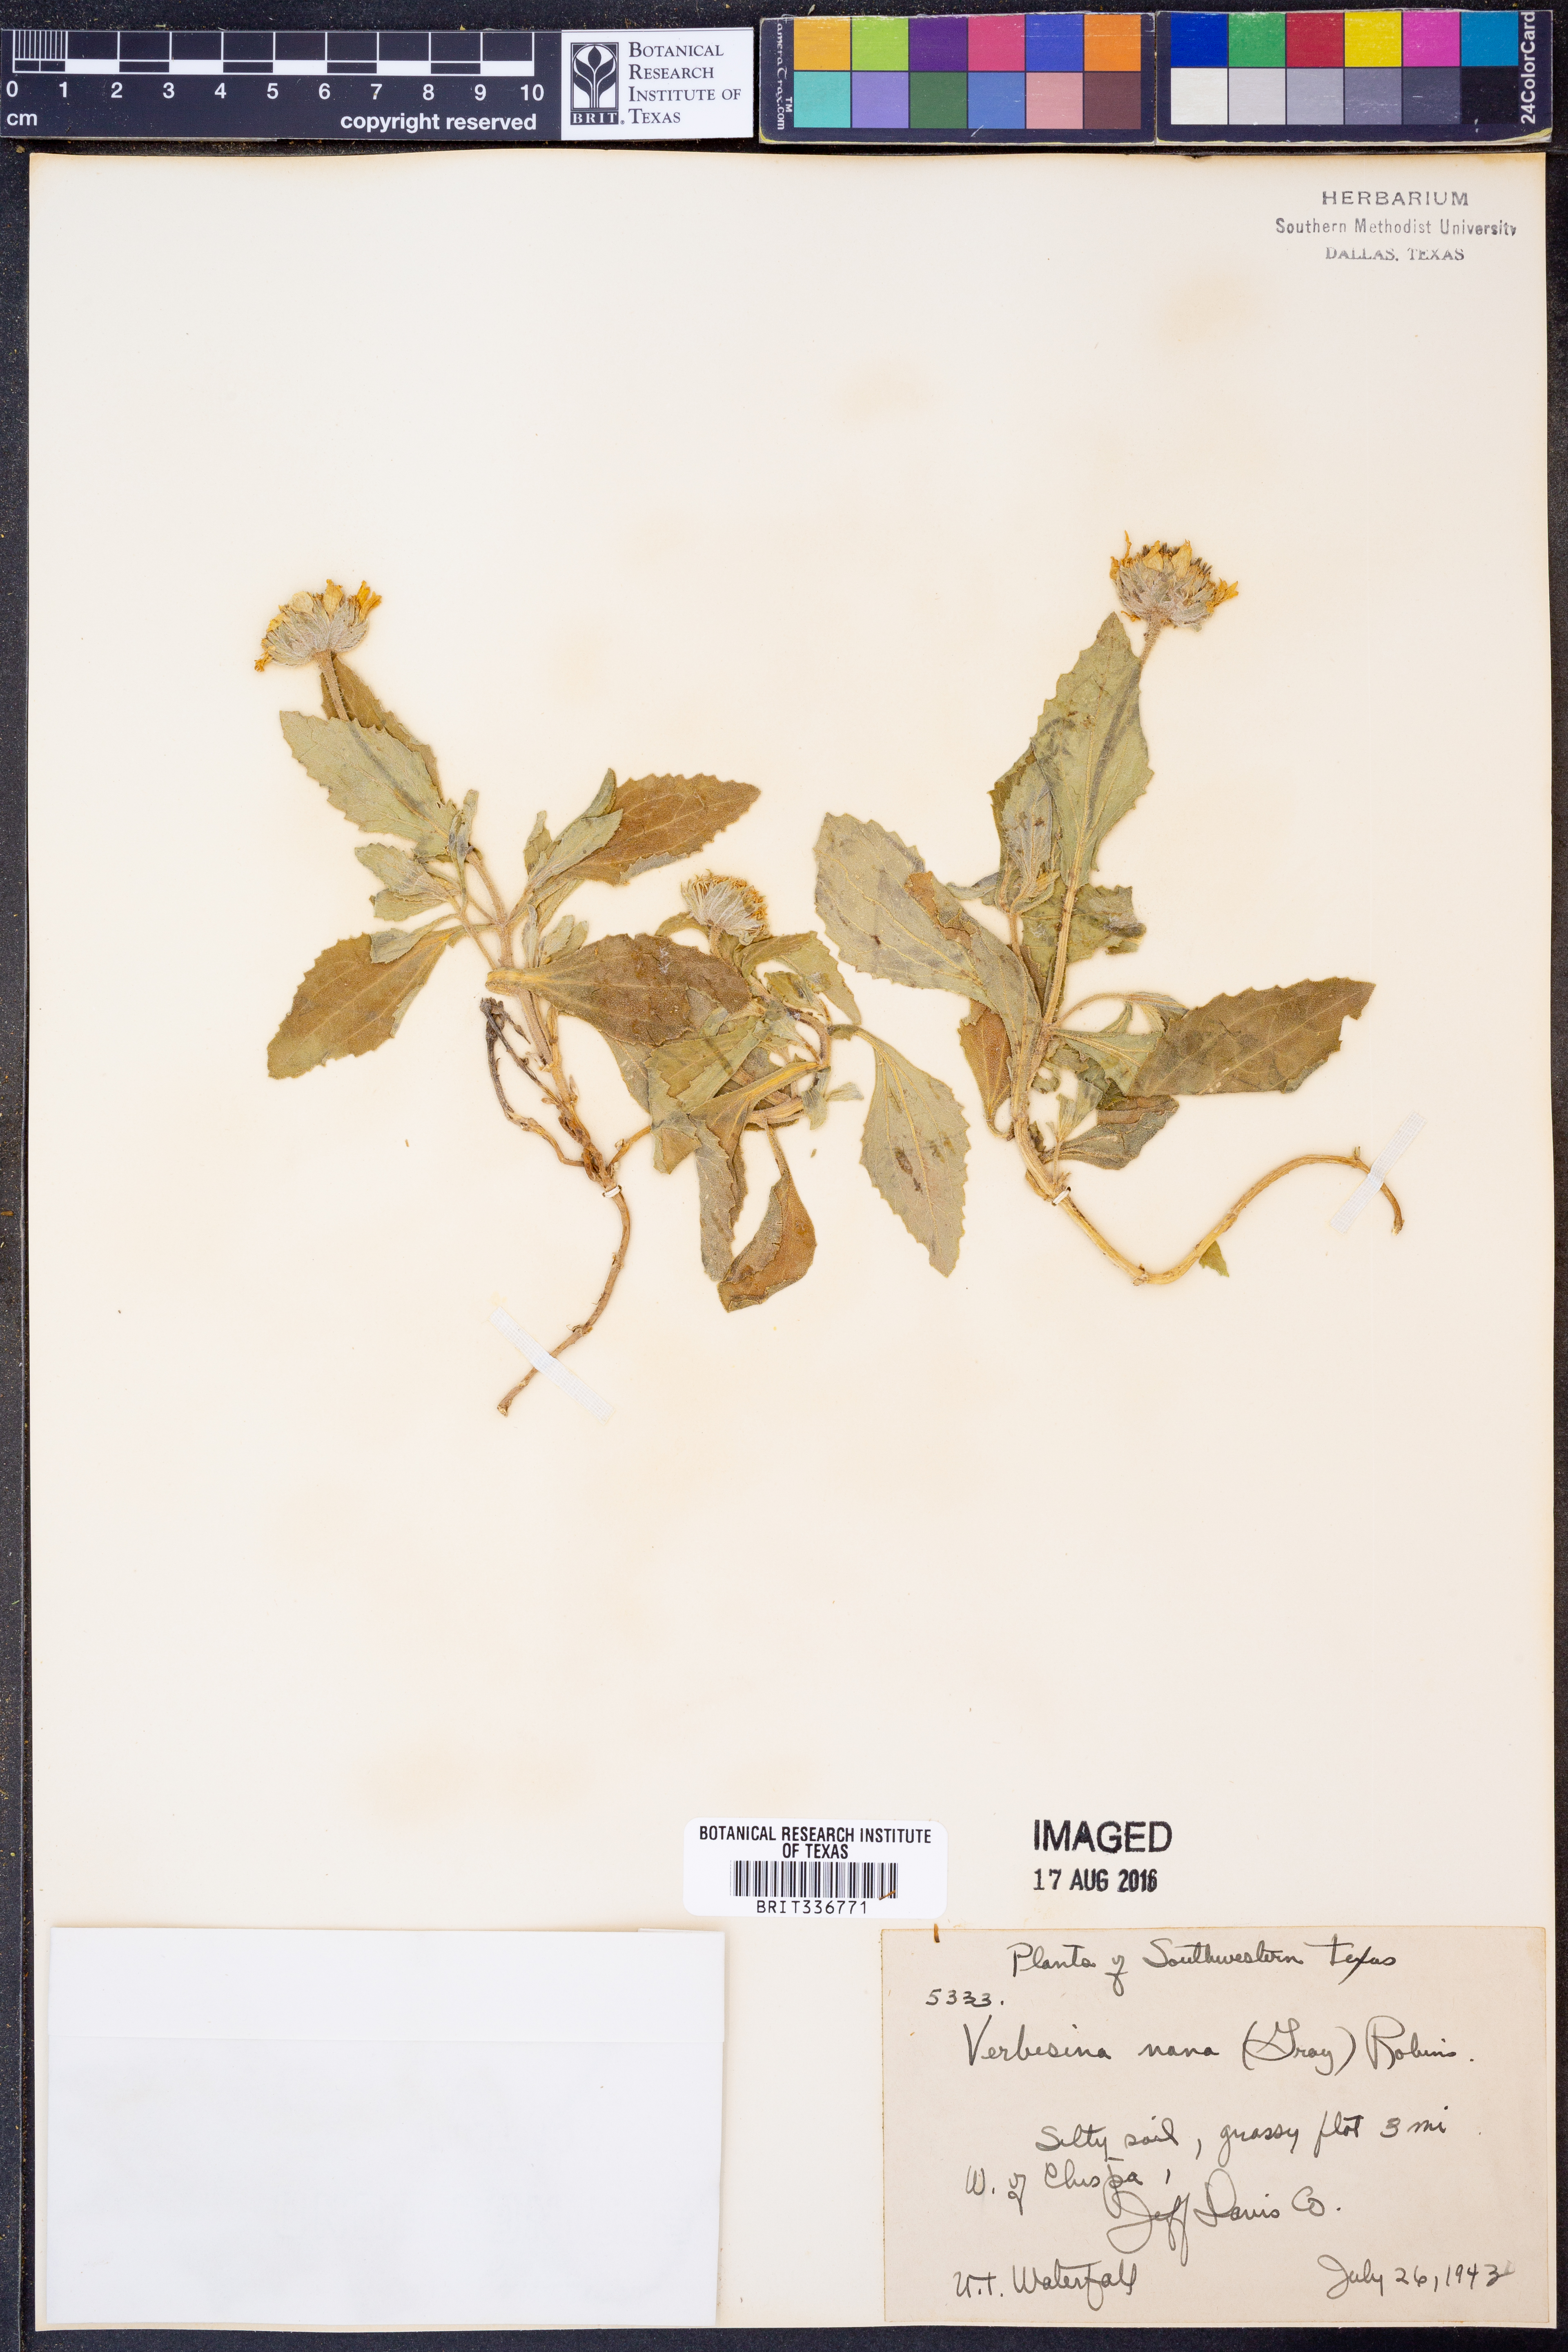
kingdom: Plantae
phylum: Tracheophyta
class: Magnoliopsida
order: Asterales
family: Asteraceae
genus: Verbesina
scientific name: Verbesina nana
